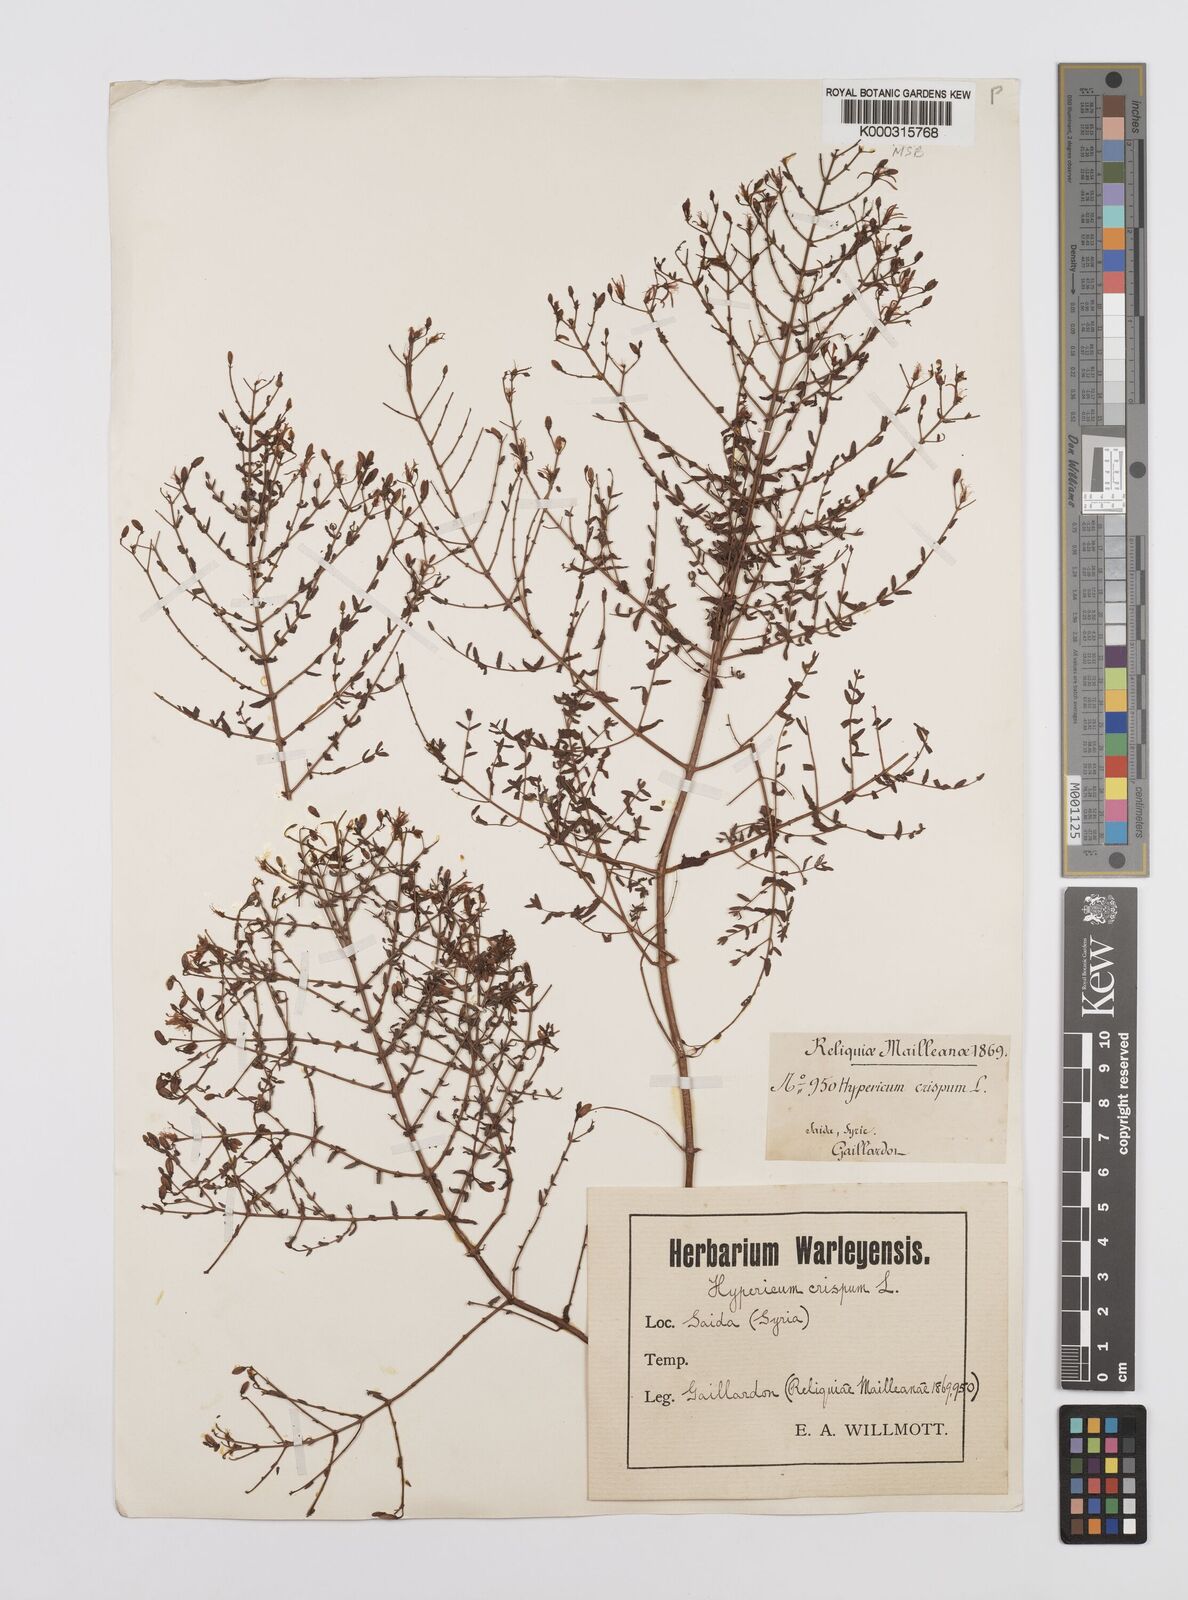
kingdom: Plantae
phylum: Tracheophyta
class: Magnoliopsida
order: Malpighiales
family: Hypericaceae
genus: Hypericum
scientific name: Hypericum triquetrifolium
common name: Tangled hypericum
